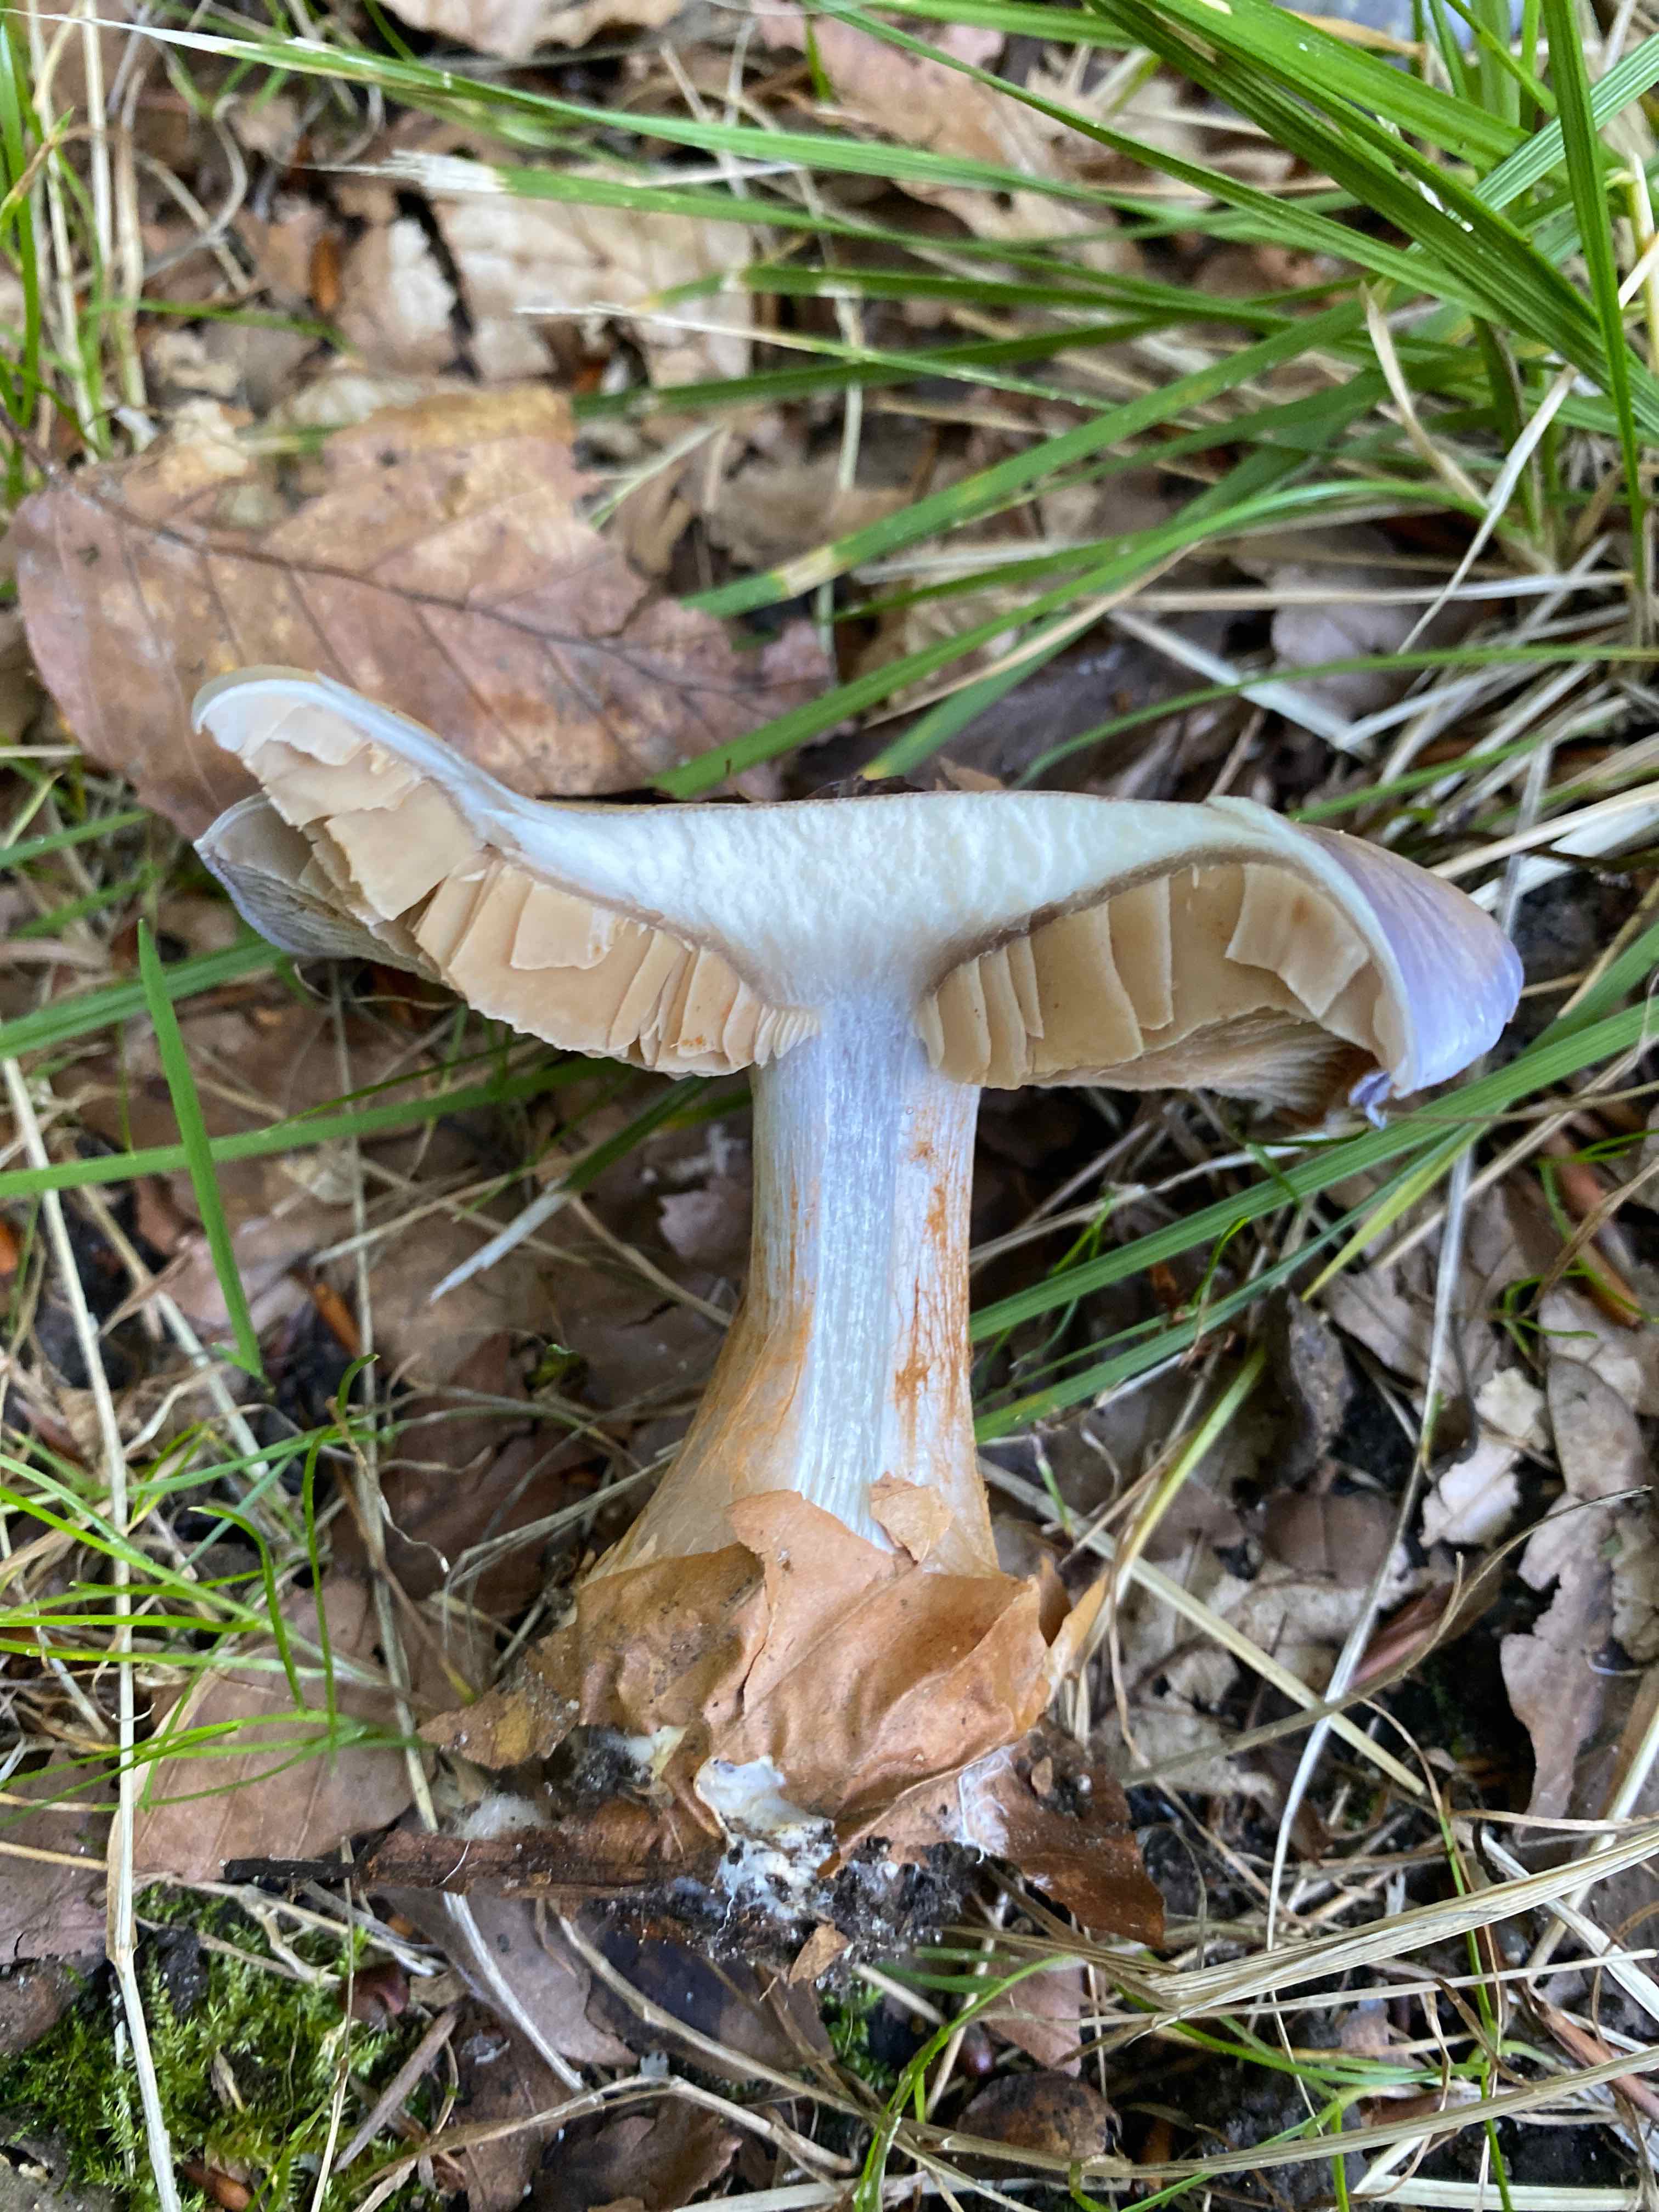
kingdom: Fungi
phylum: Basidiomycota
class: Agaricomycetes
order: Agaricales
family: Cortinariaceae
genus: Cortinarius
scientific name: Cortinarius caerulescens
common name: blåkødet slørhat
